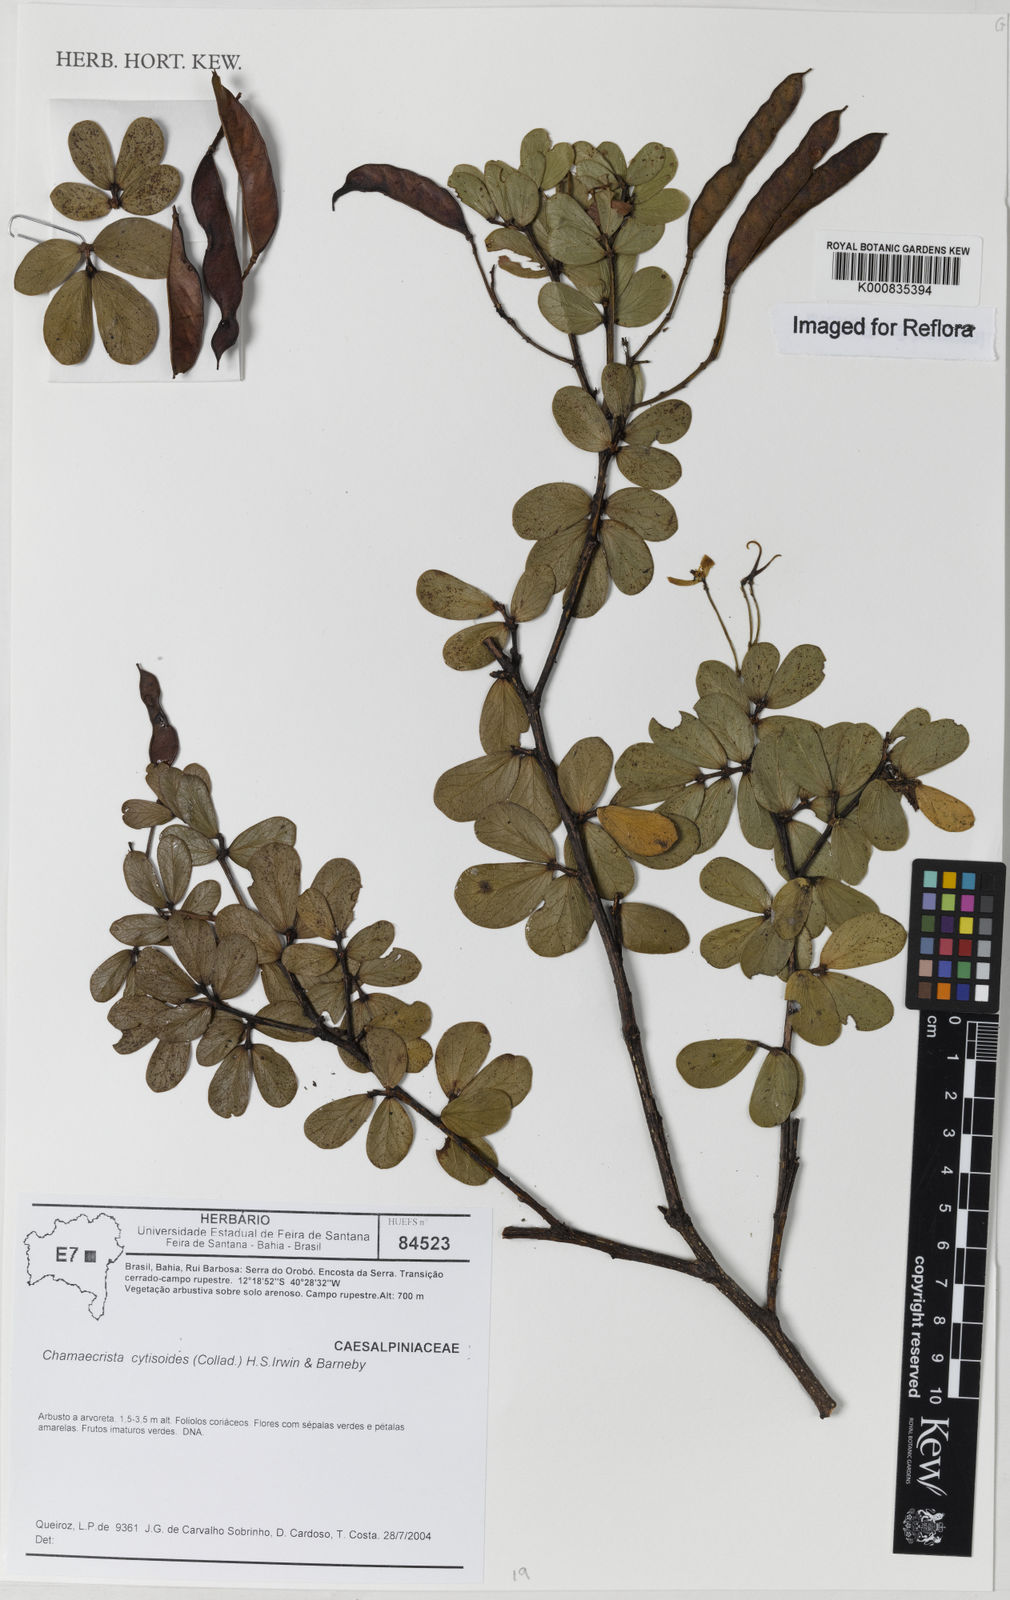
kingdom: Plantae
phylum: Tracheophyta
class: Magnoliopsida
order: Fabales
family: Fabaceae
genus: Chamaecrista
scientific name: Chamaecrista brachystachya
